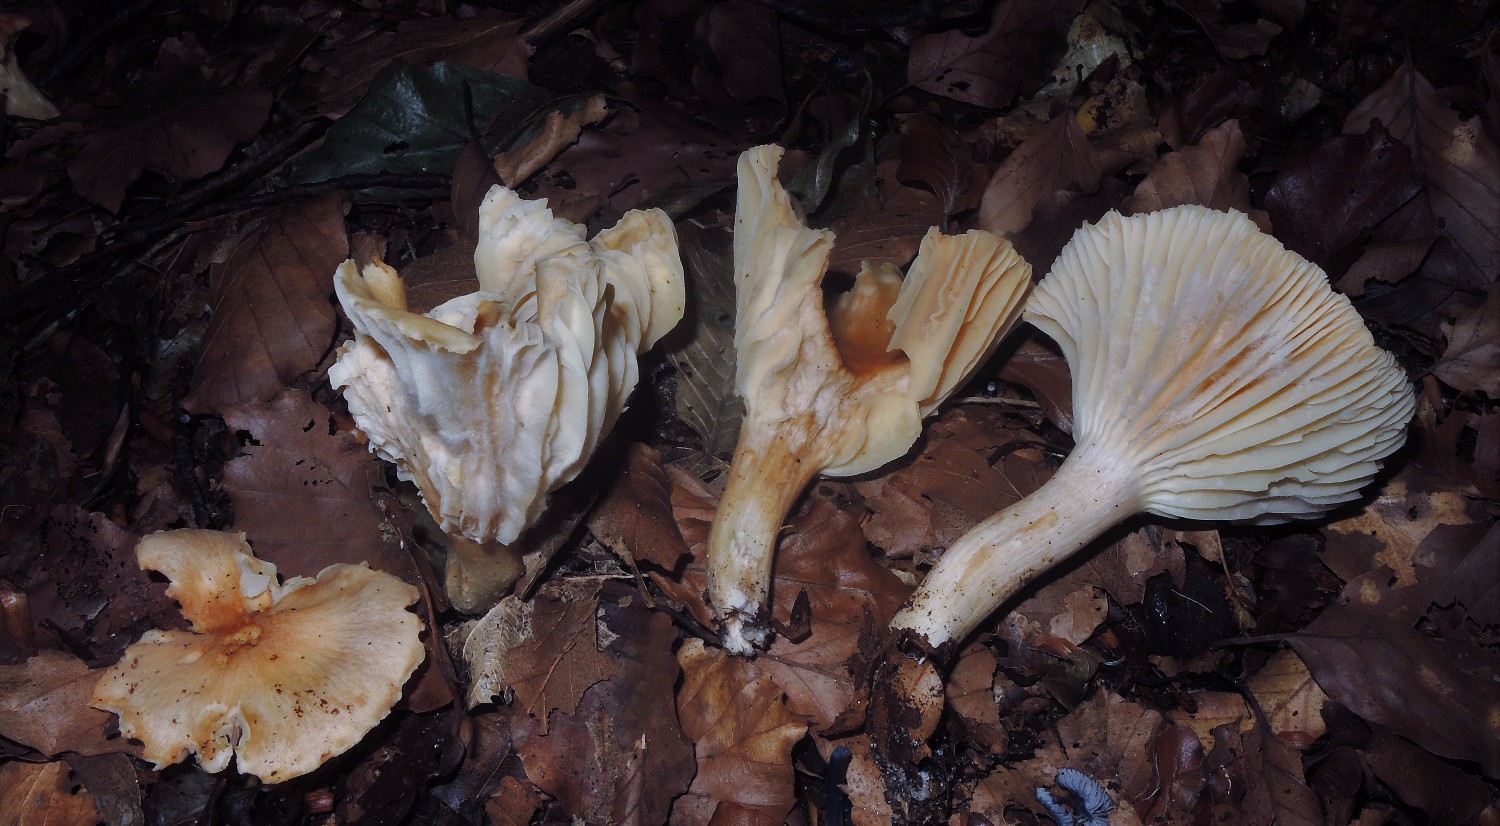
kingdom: Fungi
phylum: Basidiomycota
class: Agaricomycetes
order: Agaricales
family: Hygrophoraceae
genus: Cuphophyllus
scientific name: Cuphophyllus pratensis
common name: eng-vokshat
